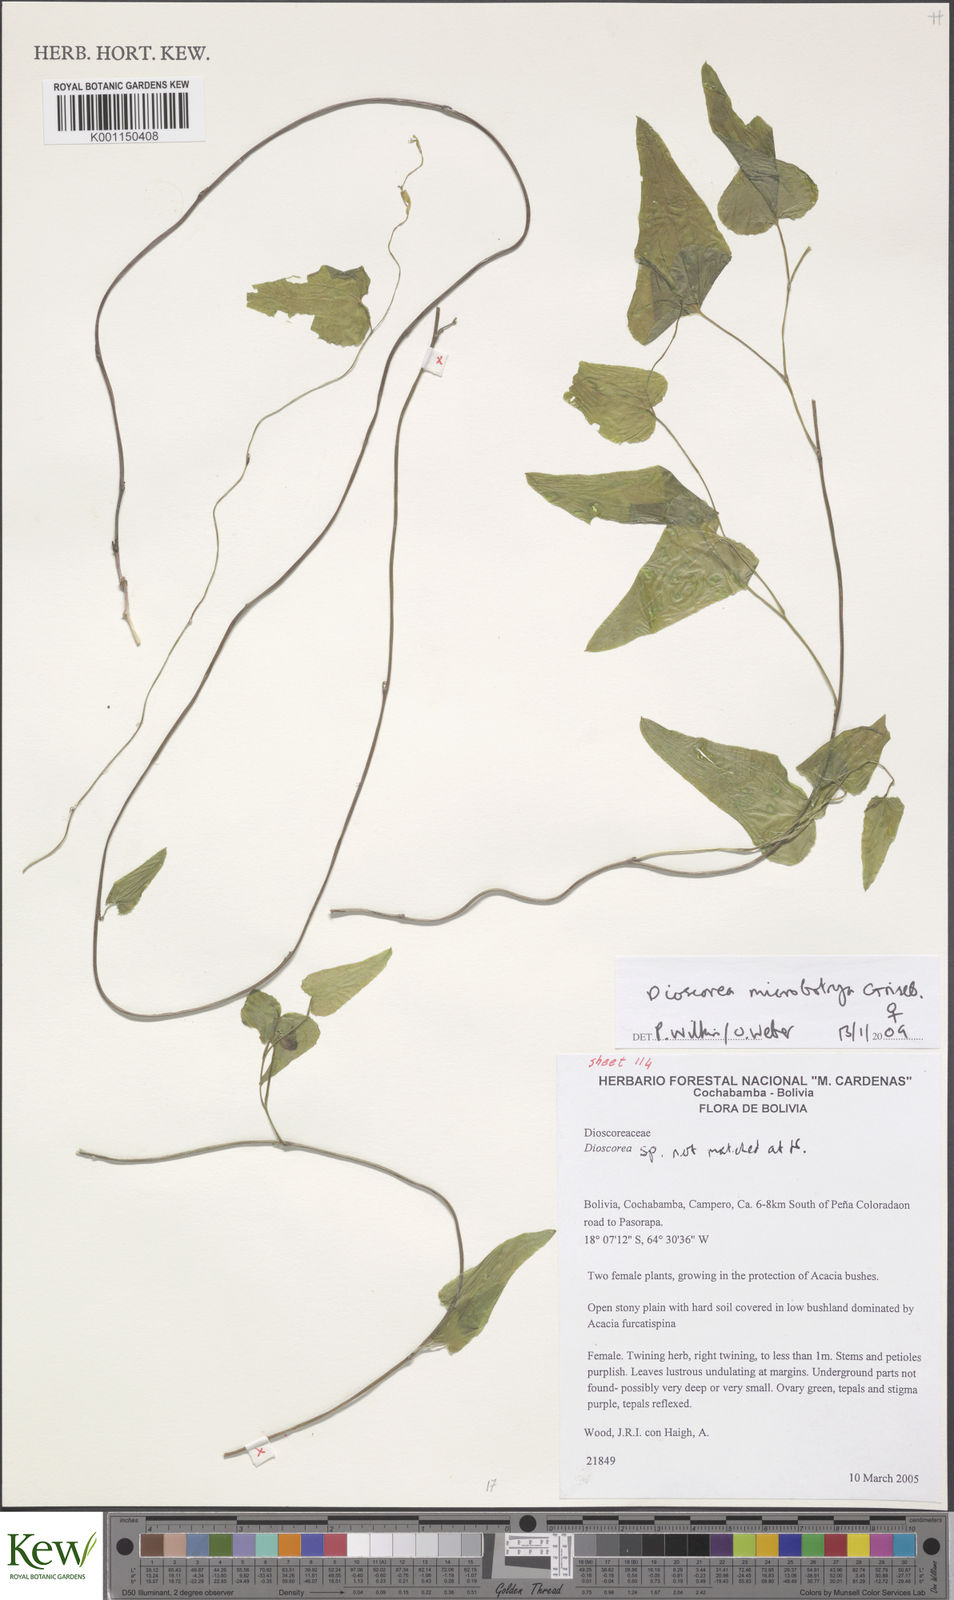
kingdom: Plantae
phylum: Tracheophyta
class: Liliopsida
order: Dioscoreales
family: Dioscoreaceae
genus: Dioscorea
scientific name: Dioscorea microbotrya
